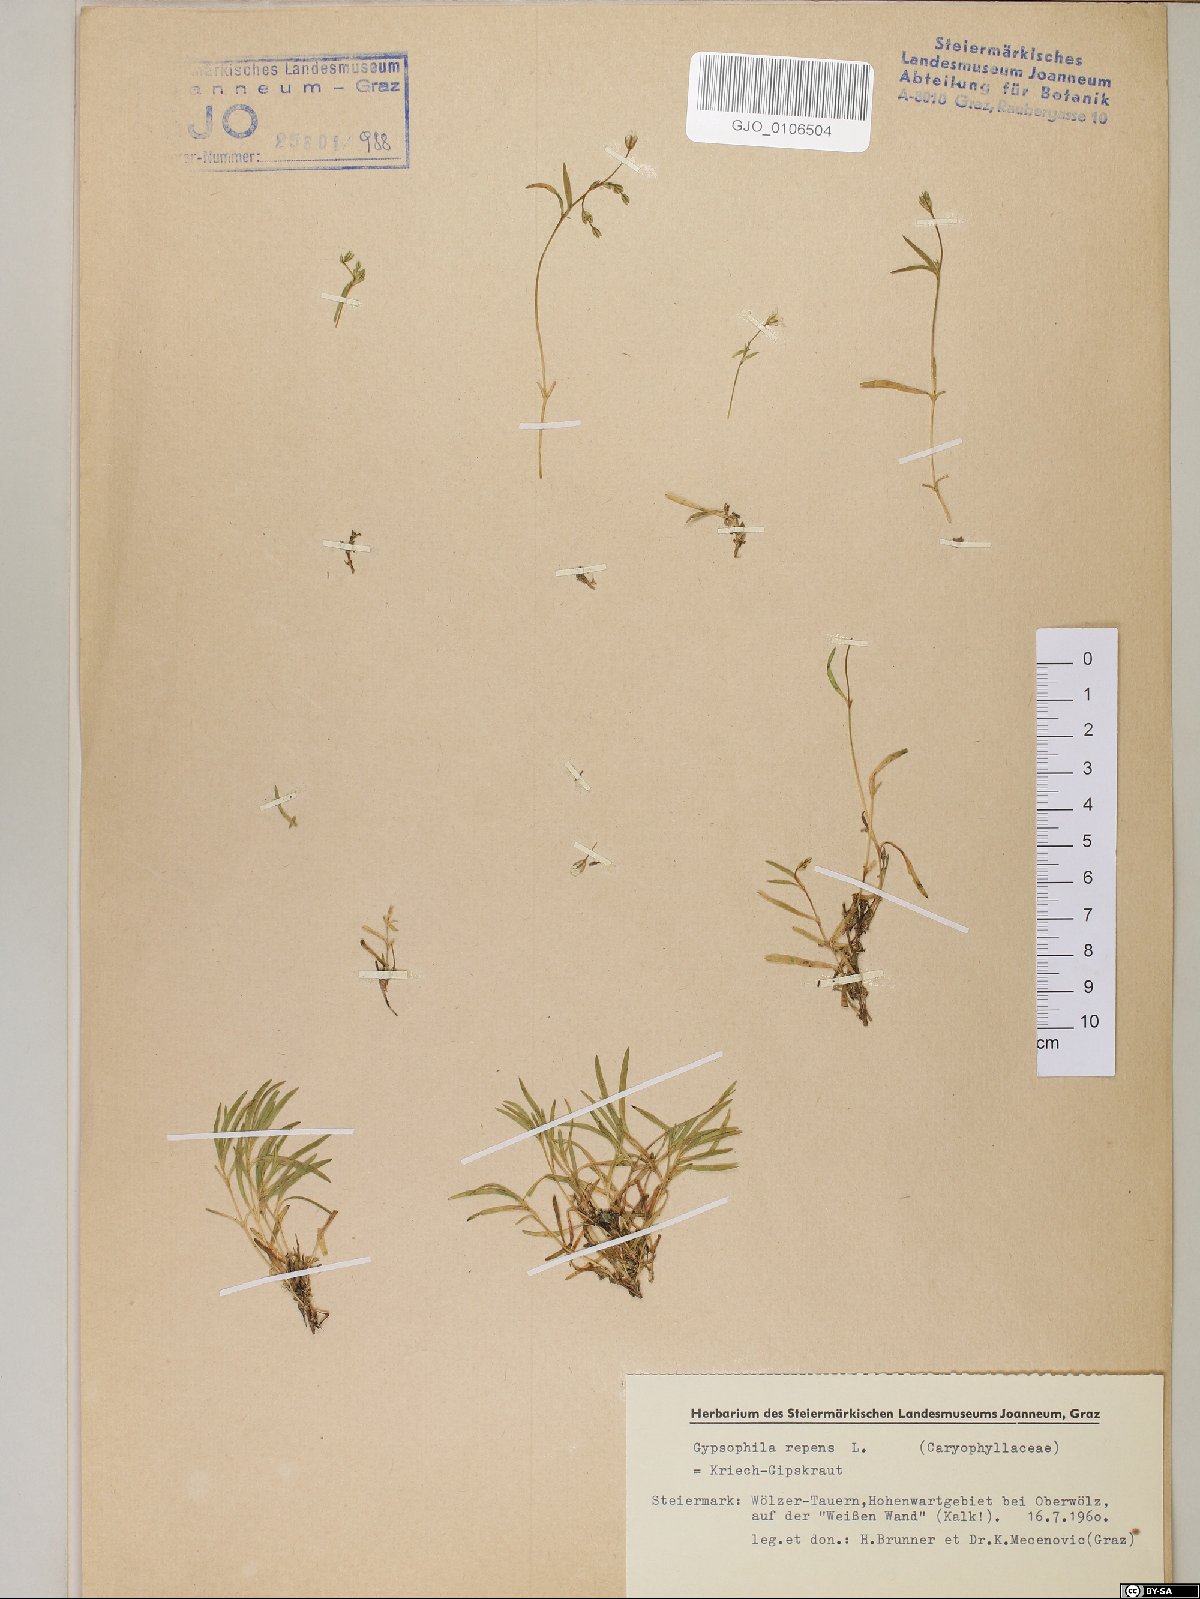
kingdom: Plantae
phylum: Tracheophyta
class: Magnoliopsida
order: Caryophyllales
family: Caryophyllaceae
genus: Gypsophila
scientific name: Gypsophila repens
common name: Creeping baby's-breath
